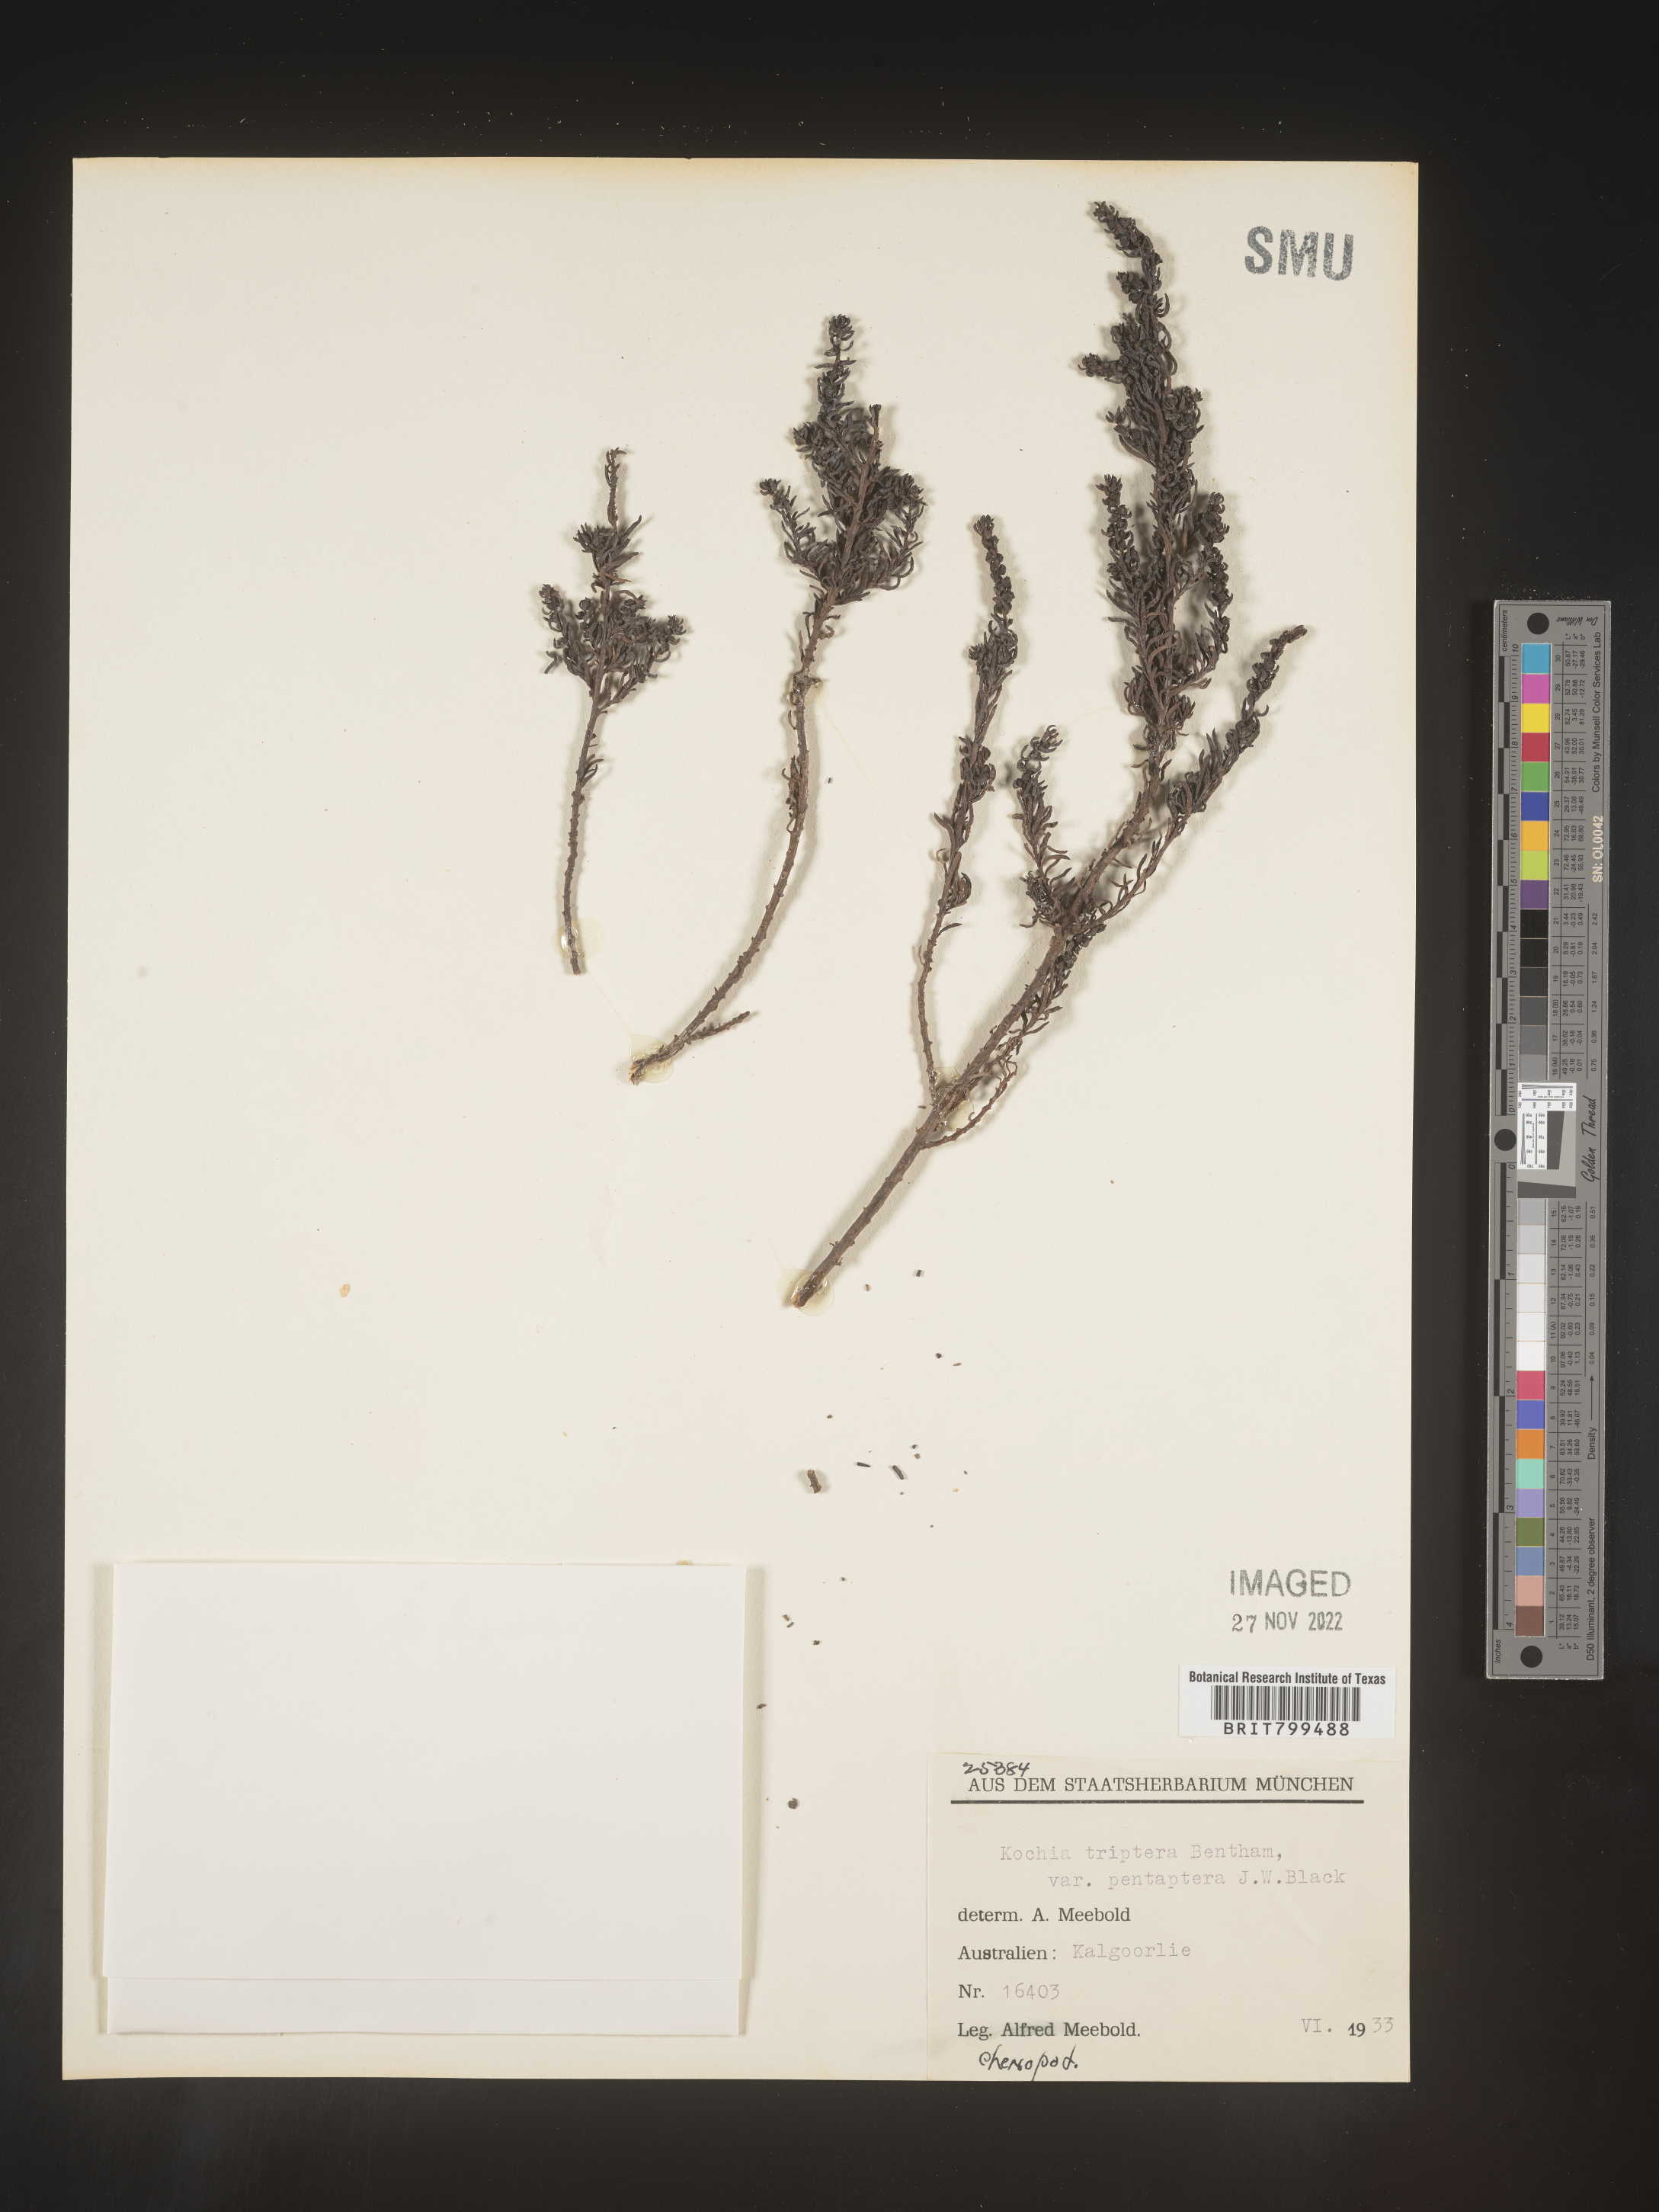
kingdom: Plantae
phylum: Tracheophyta
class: Magnoliopsida
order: Caryophyllales
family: Amaranthaceae
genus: Bassia
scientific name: Bassia
